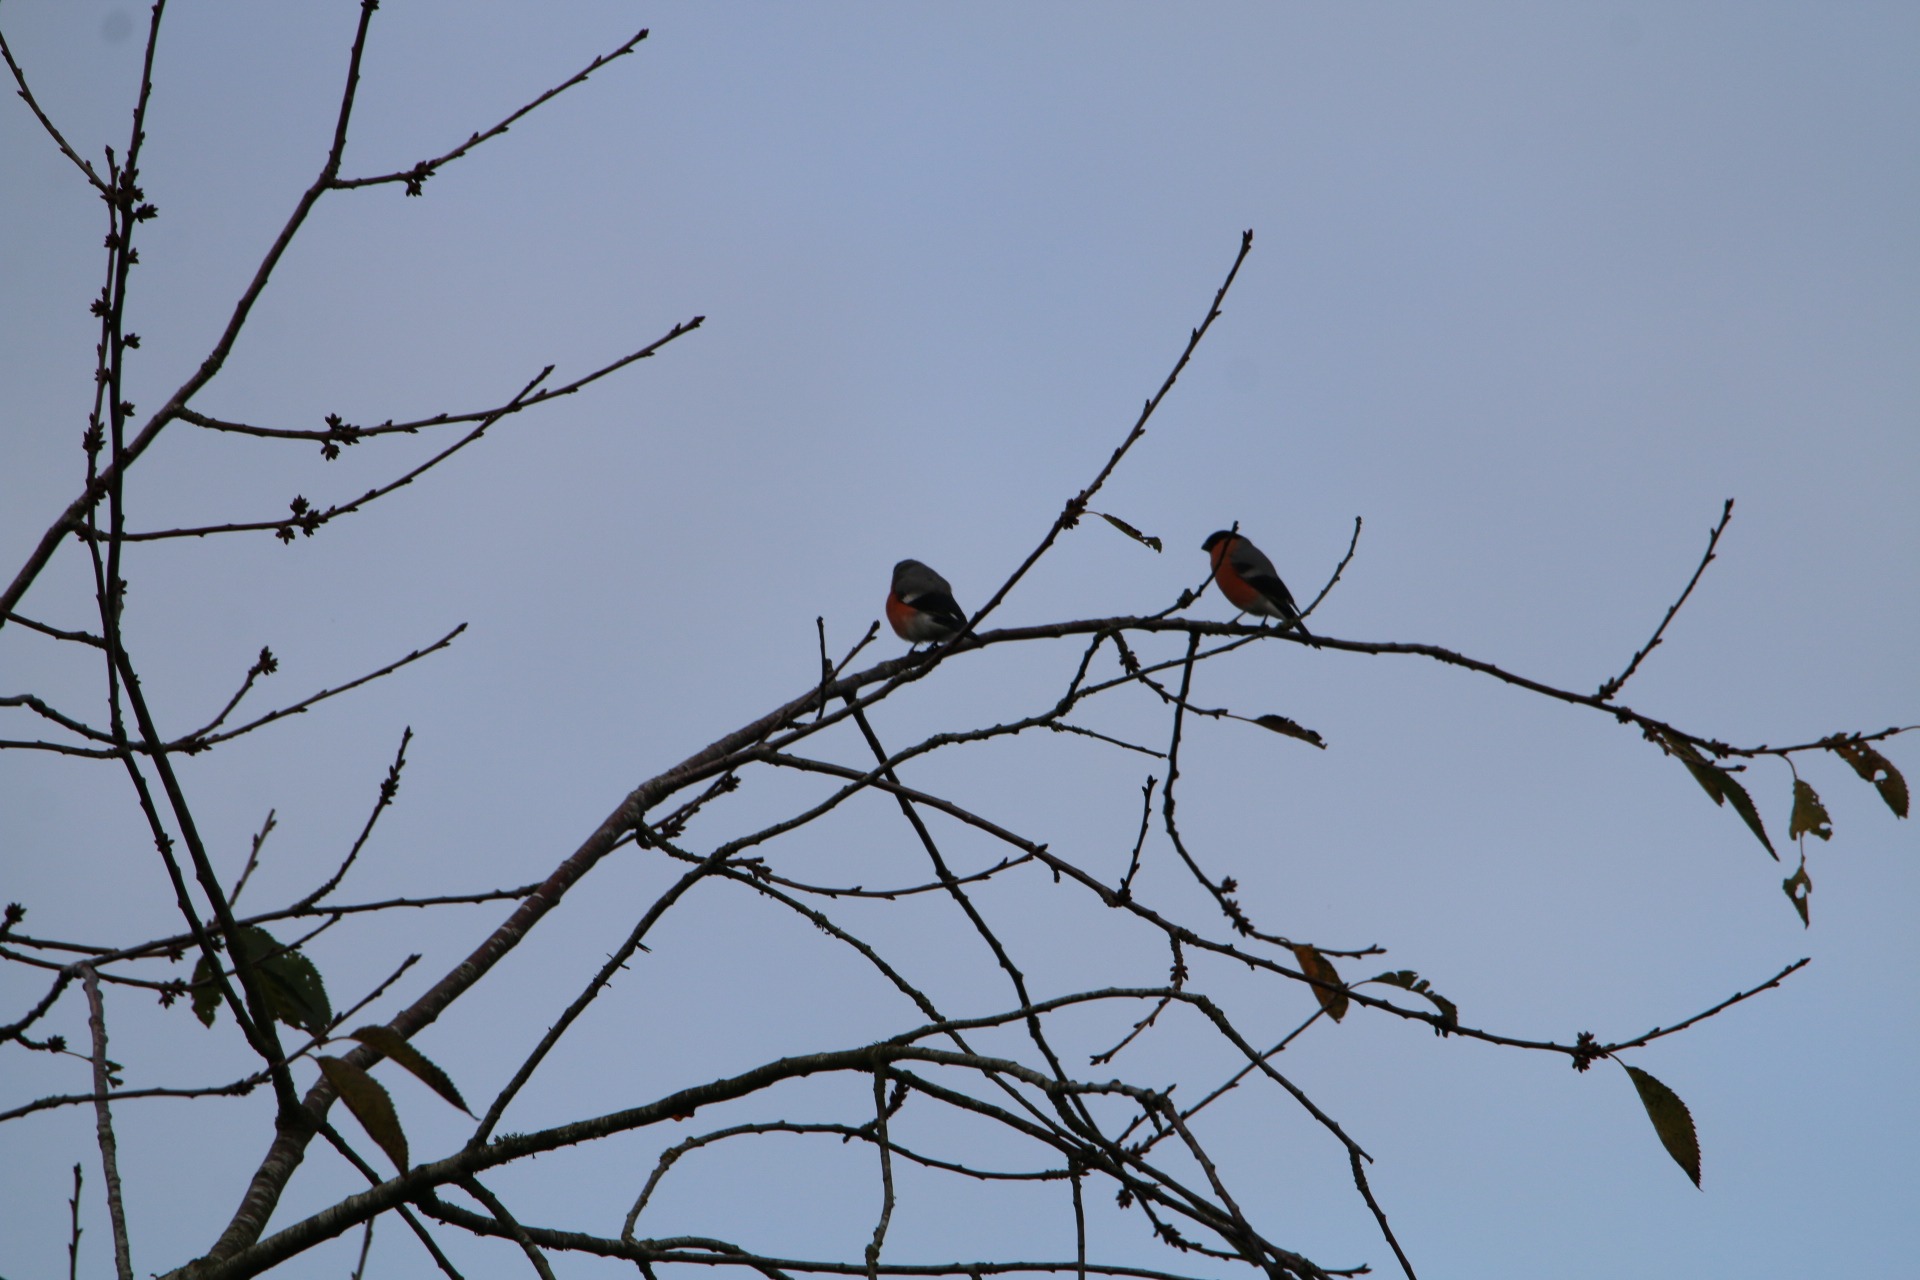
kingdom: Animalia
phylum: Chordata
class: Aves
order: Passeriformes
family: Fringillidae
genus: Pyrrhula
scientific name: Pyrrhula pyrrhula
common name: Dompap
